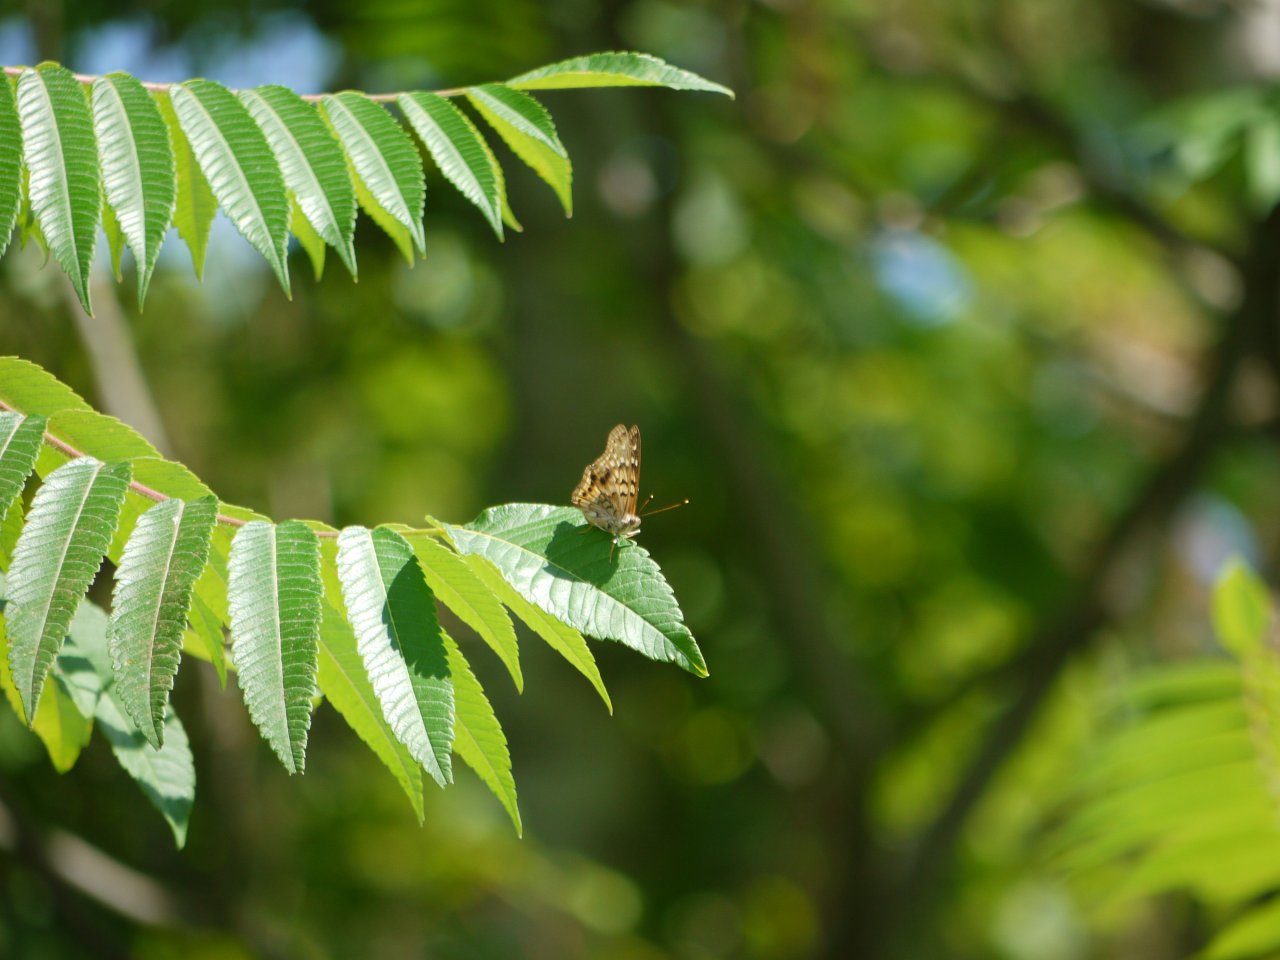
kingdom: Animalia
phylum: Arthropoda
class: Insecta
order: Lepidoptera
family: Nymphalidae
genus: Asterocampa
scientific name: Asterocampa clyton
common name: Tawny Emperor
